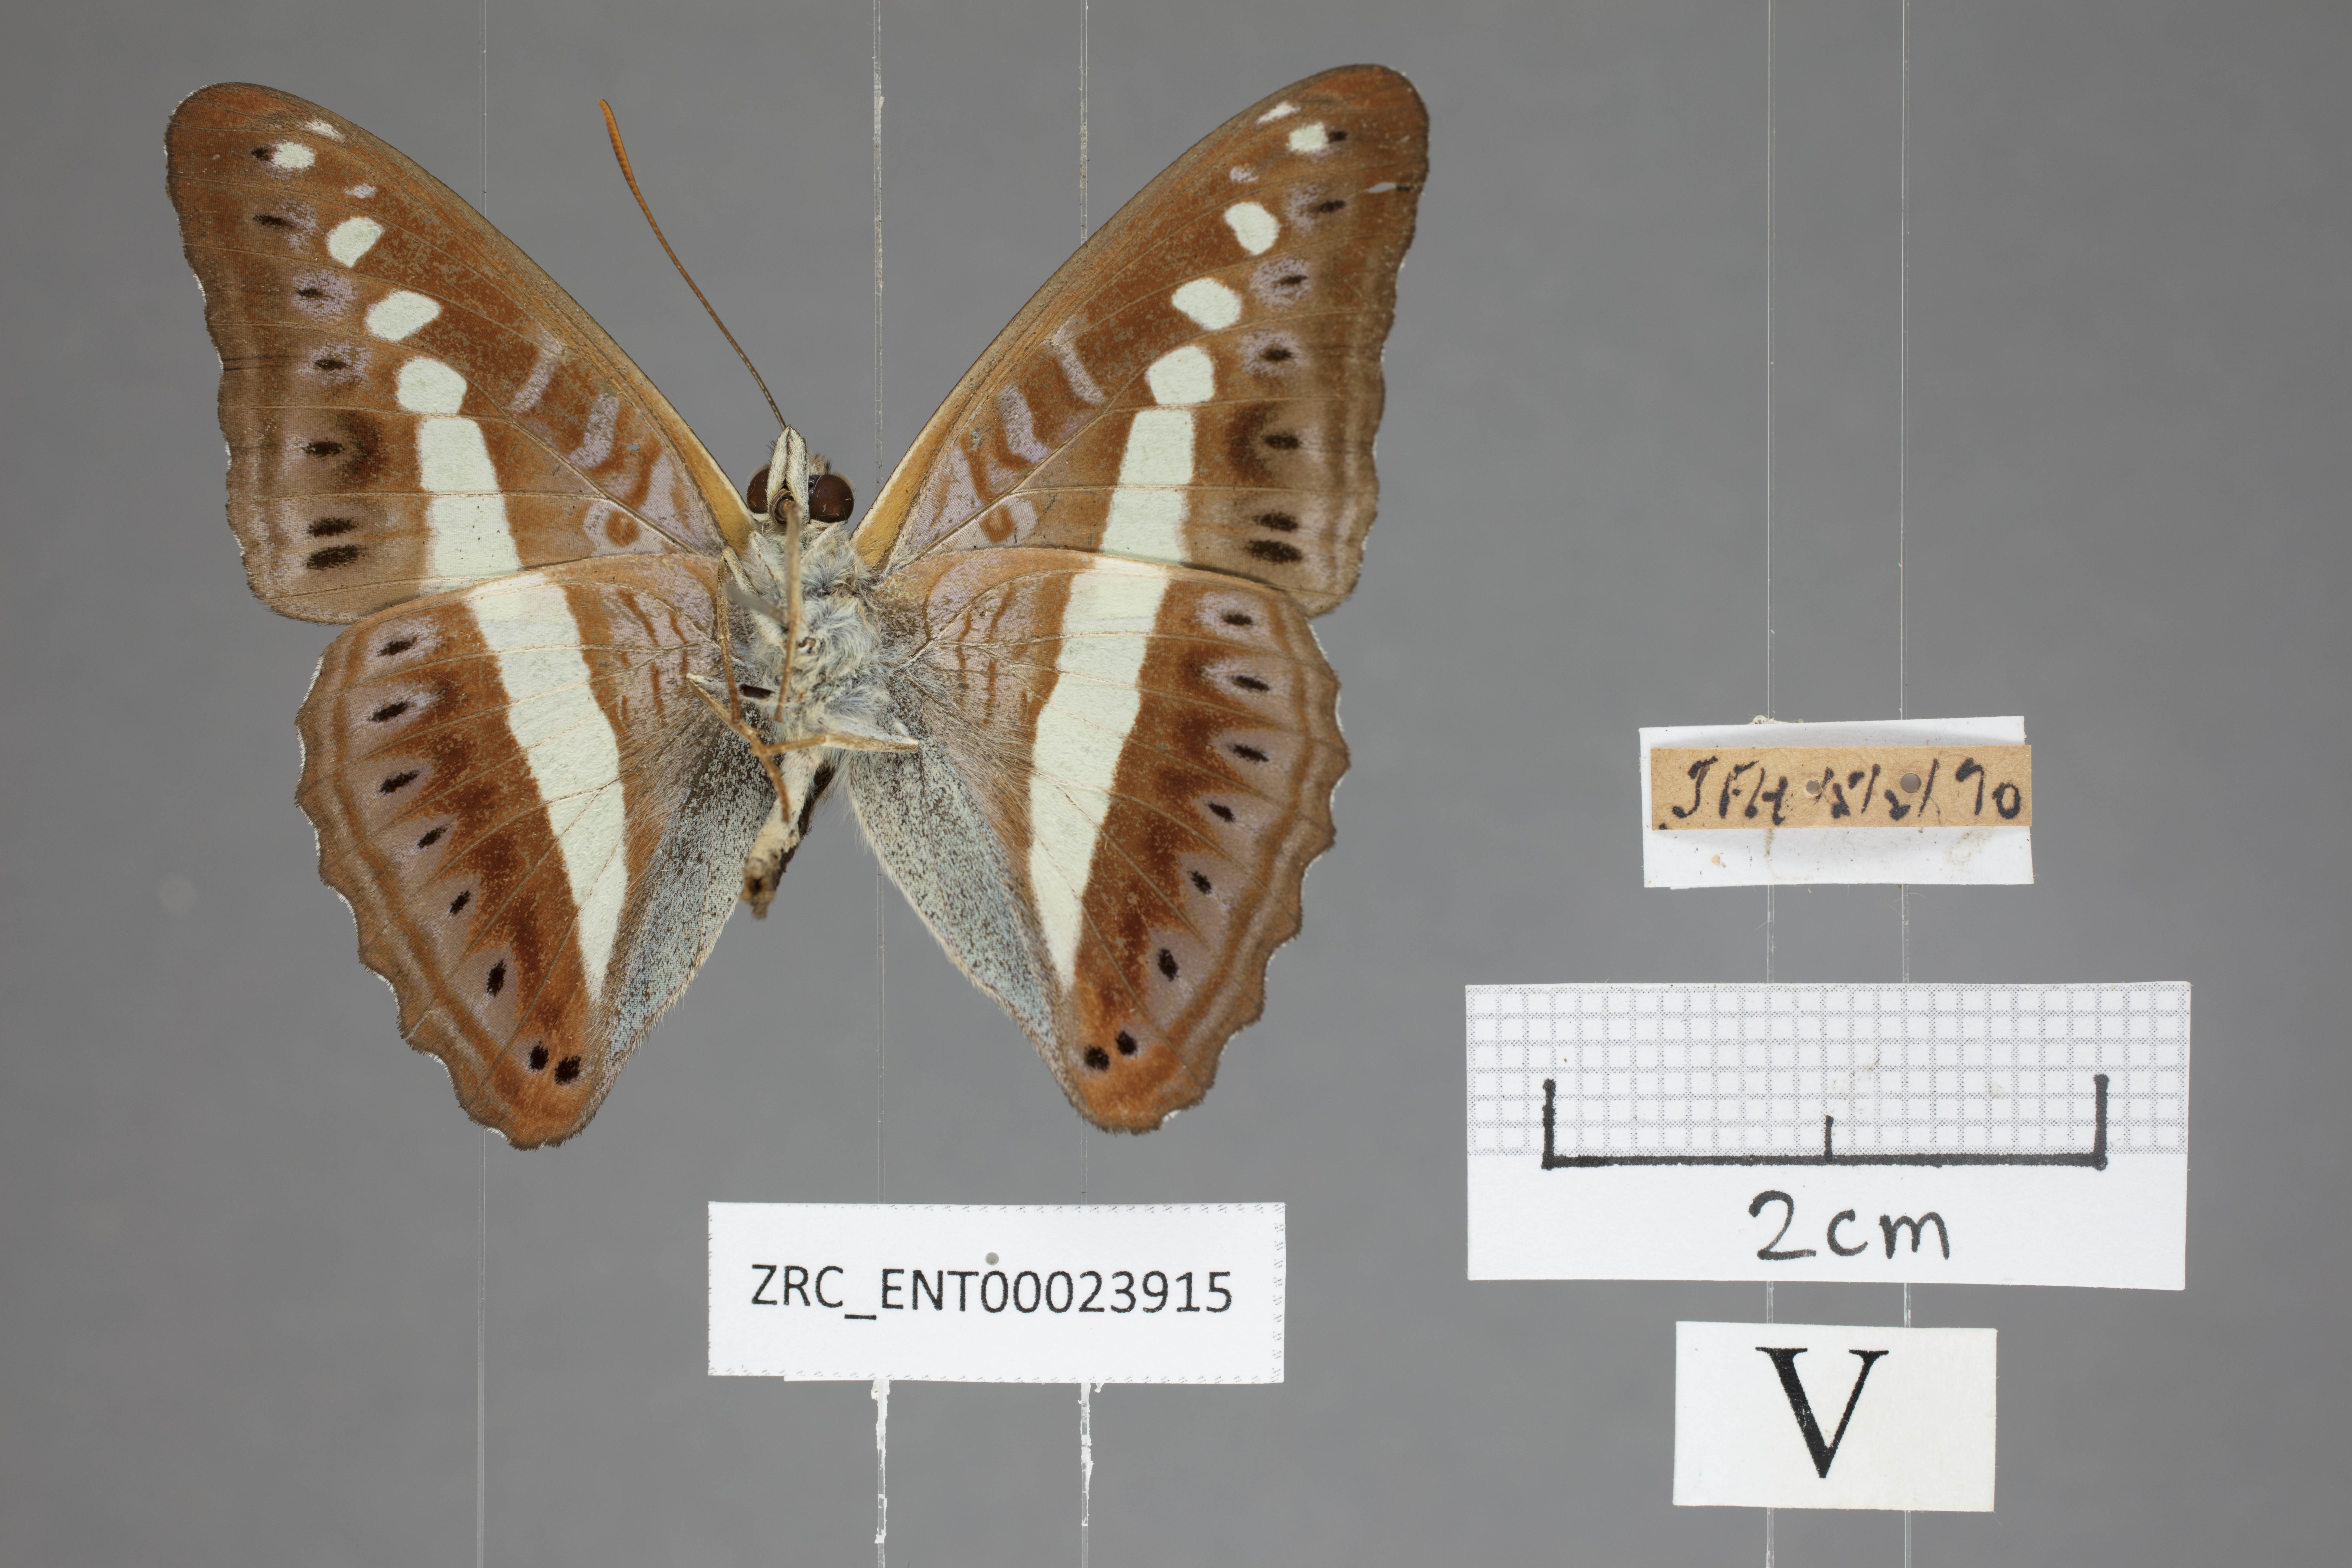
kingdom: Animalia
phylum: Arthropoda
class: Insecta
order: Lepidoptera
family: Nymphalidae
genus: Limenitis
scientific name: Limenitis Sumalia daraxa
